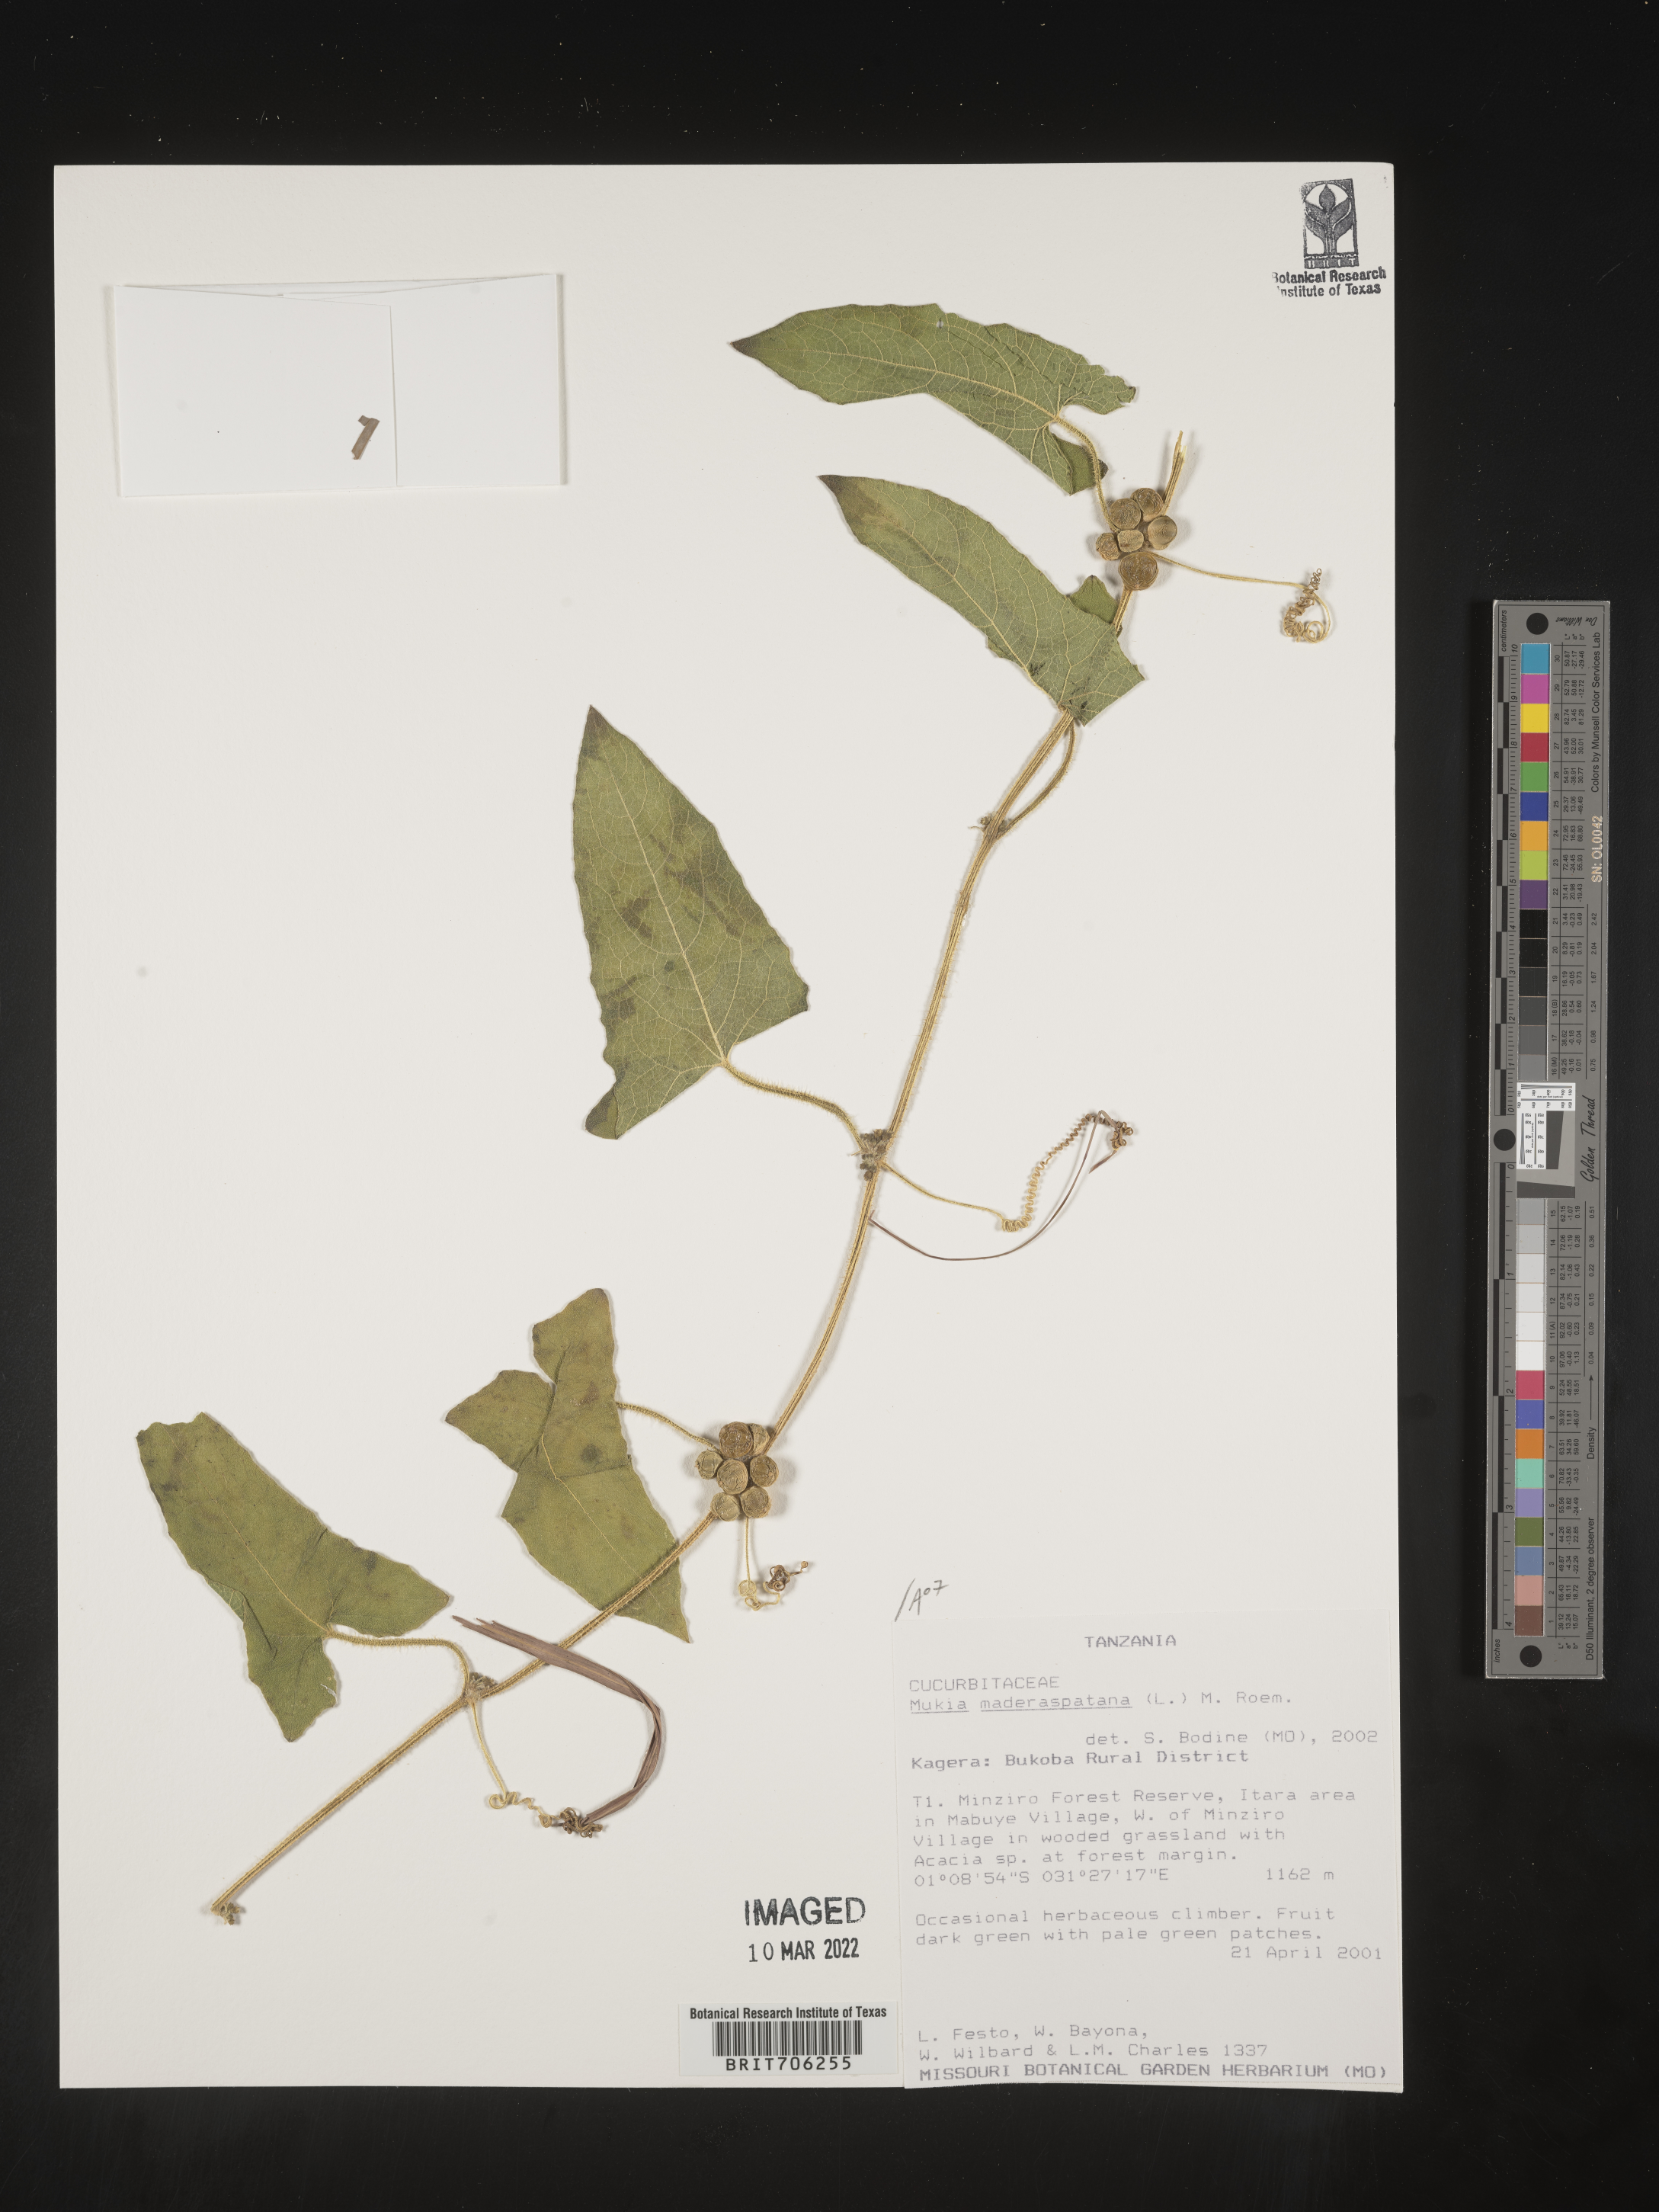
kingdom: Plantae
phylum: Tracheophyta
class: Magnoliopsida
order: Cucurbitales
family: Cucurbitaceae
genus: Cucumis
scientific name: Cucumis
